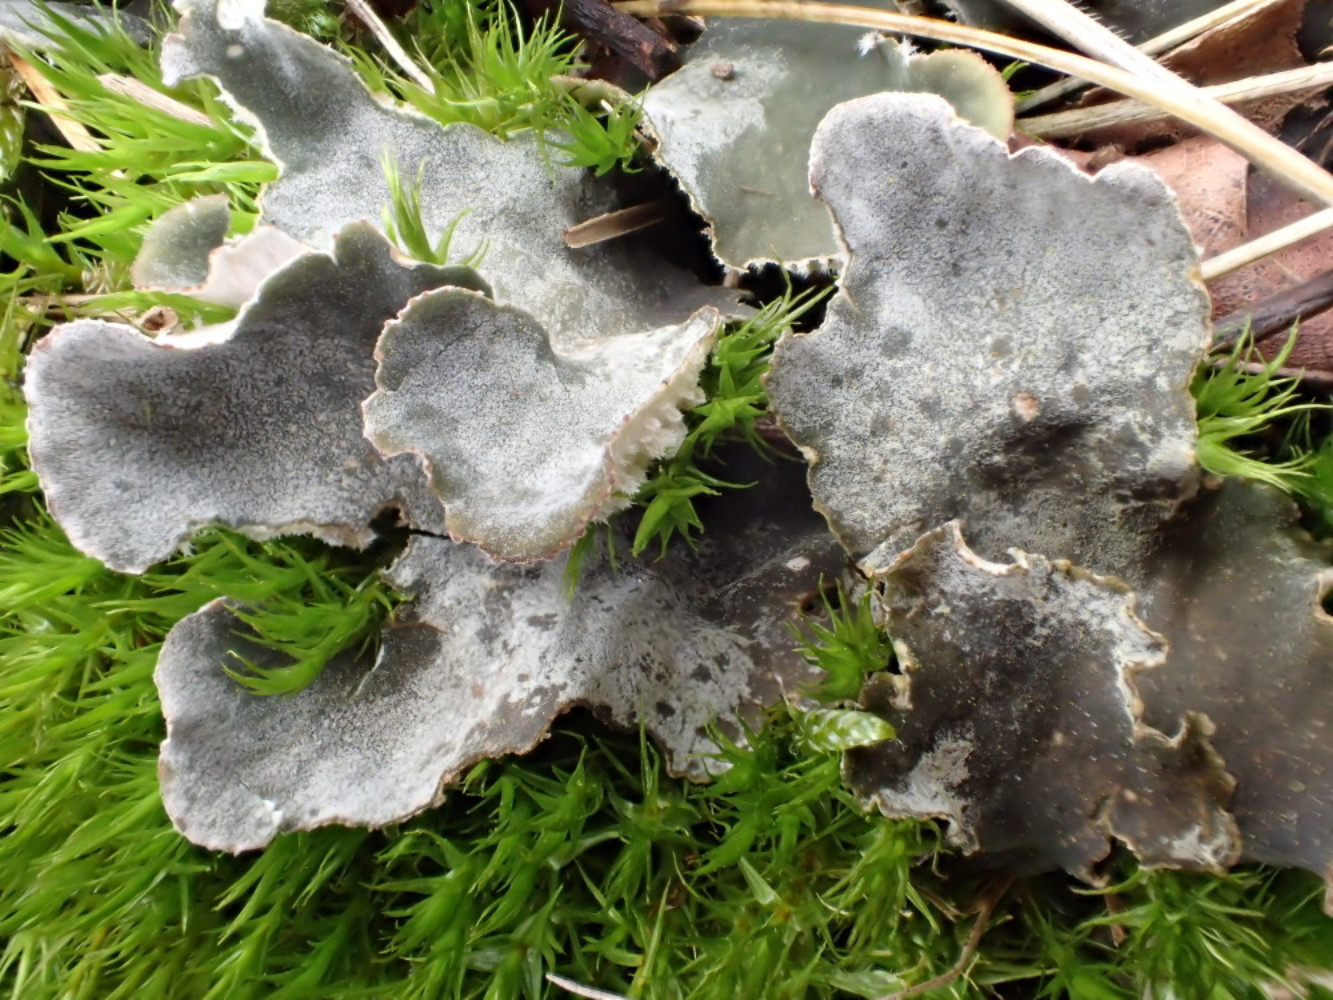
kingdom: Fungi
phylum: Ascomycota
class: Lecanoromycetes
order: Peltigerales
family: Peltigeraceae
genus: Peltigera
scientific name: Peltigera canina
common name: hunde-skjoldlav
